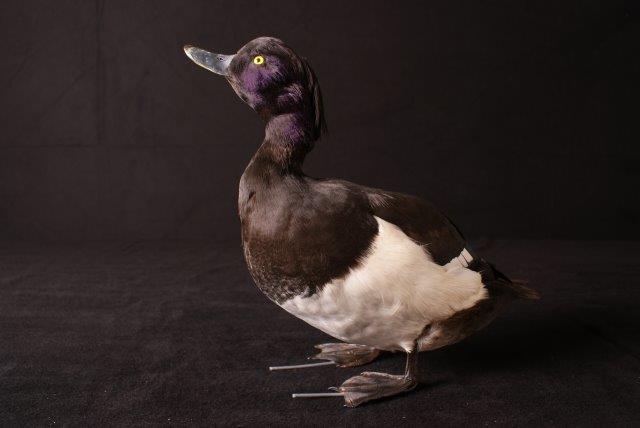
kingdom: Animalia
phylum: Chordata
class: Aves
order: Anseriformes
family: Anatidae
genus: Aythya
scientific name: Aythya fuligula
